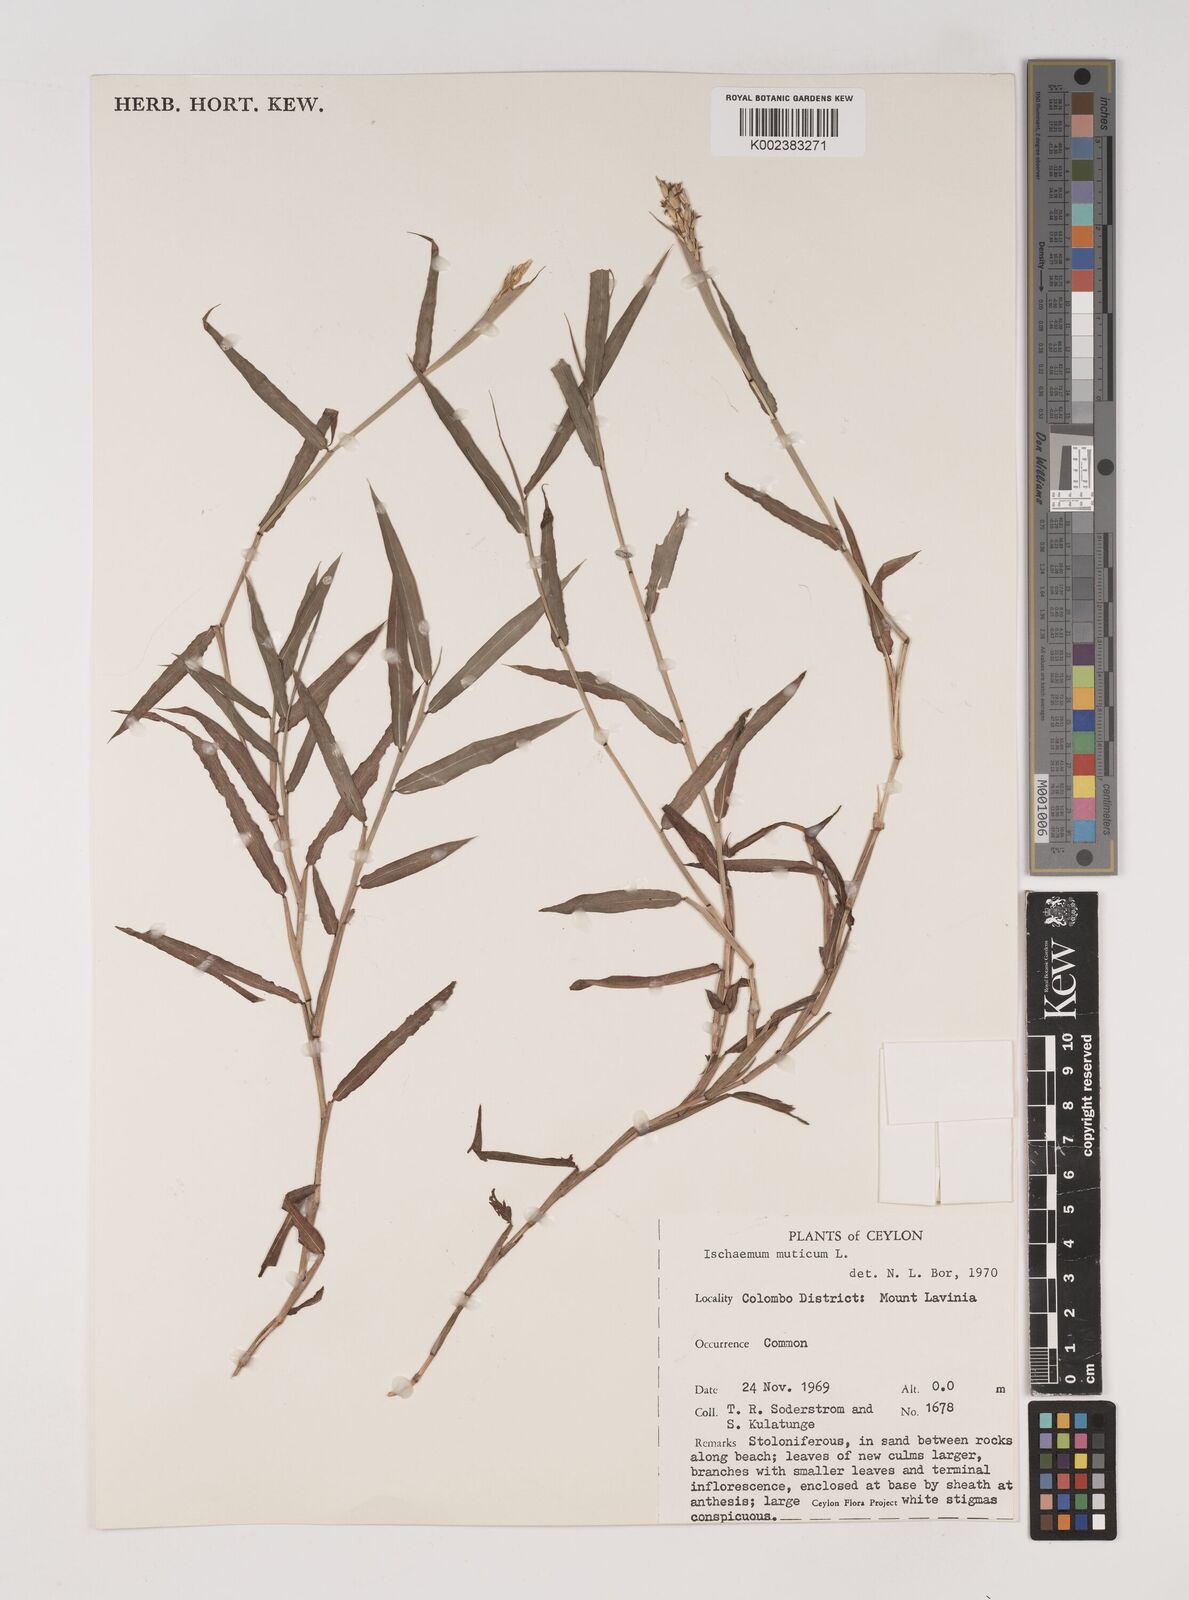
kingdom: Plantae
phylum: Tracheophyta
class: Liliopsida
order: Poales
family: Poaceae
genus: Ischaemum
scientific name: Ischaemum muticum
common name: Drought grass
